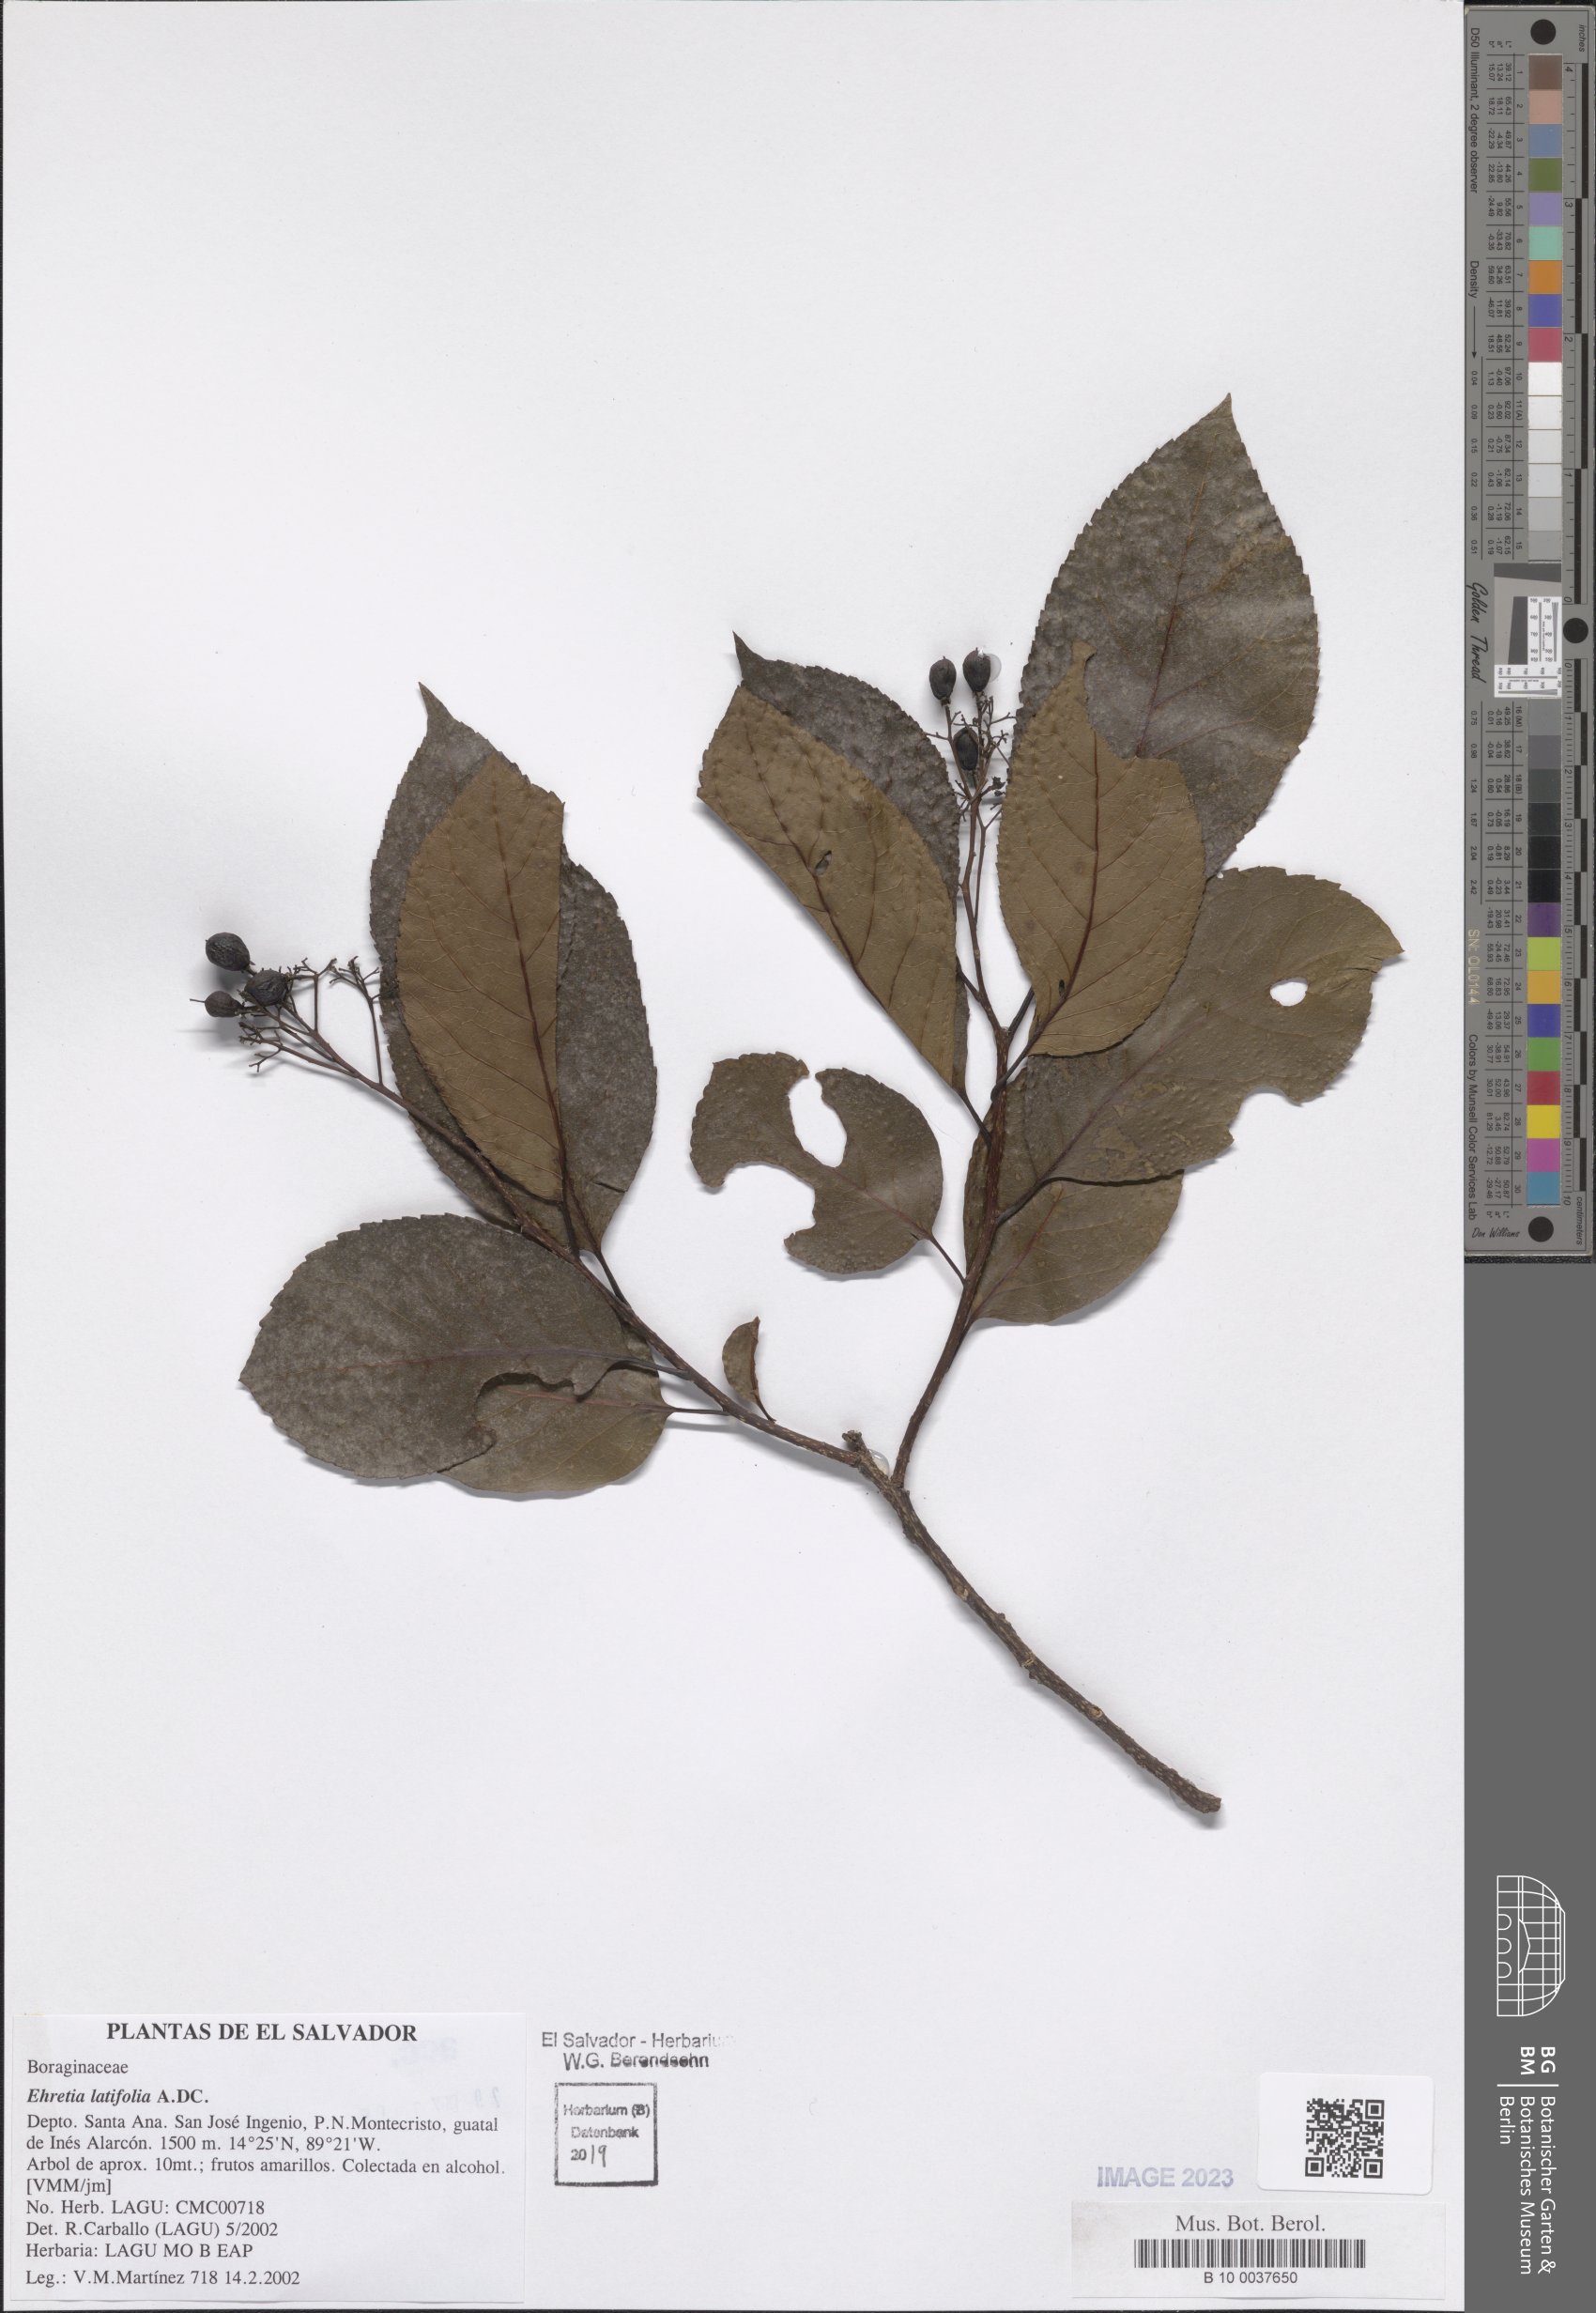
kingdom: Plantae
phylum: Tracheophyta
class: Magnoliopsida
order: Boraginales
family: Ehretiaceae
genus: Ehretia
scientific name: Ehretia latifolia
